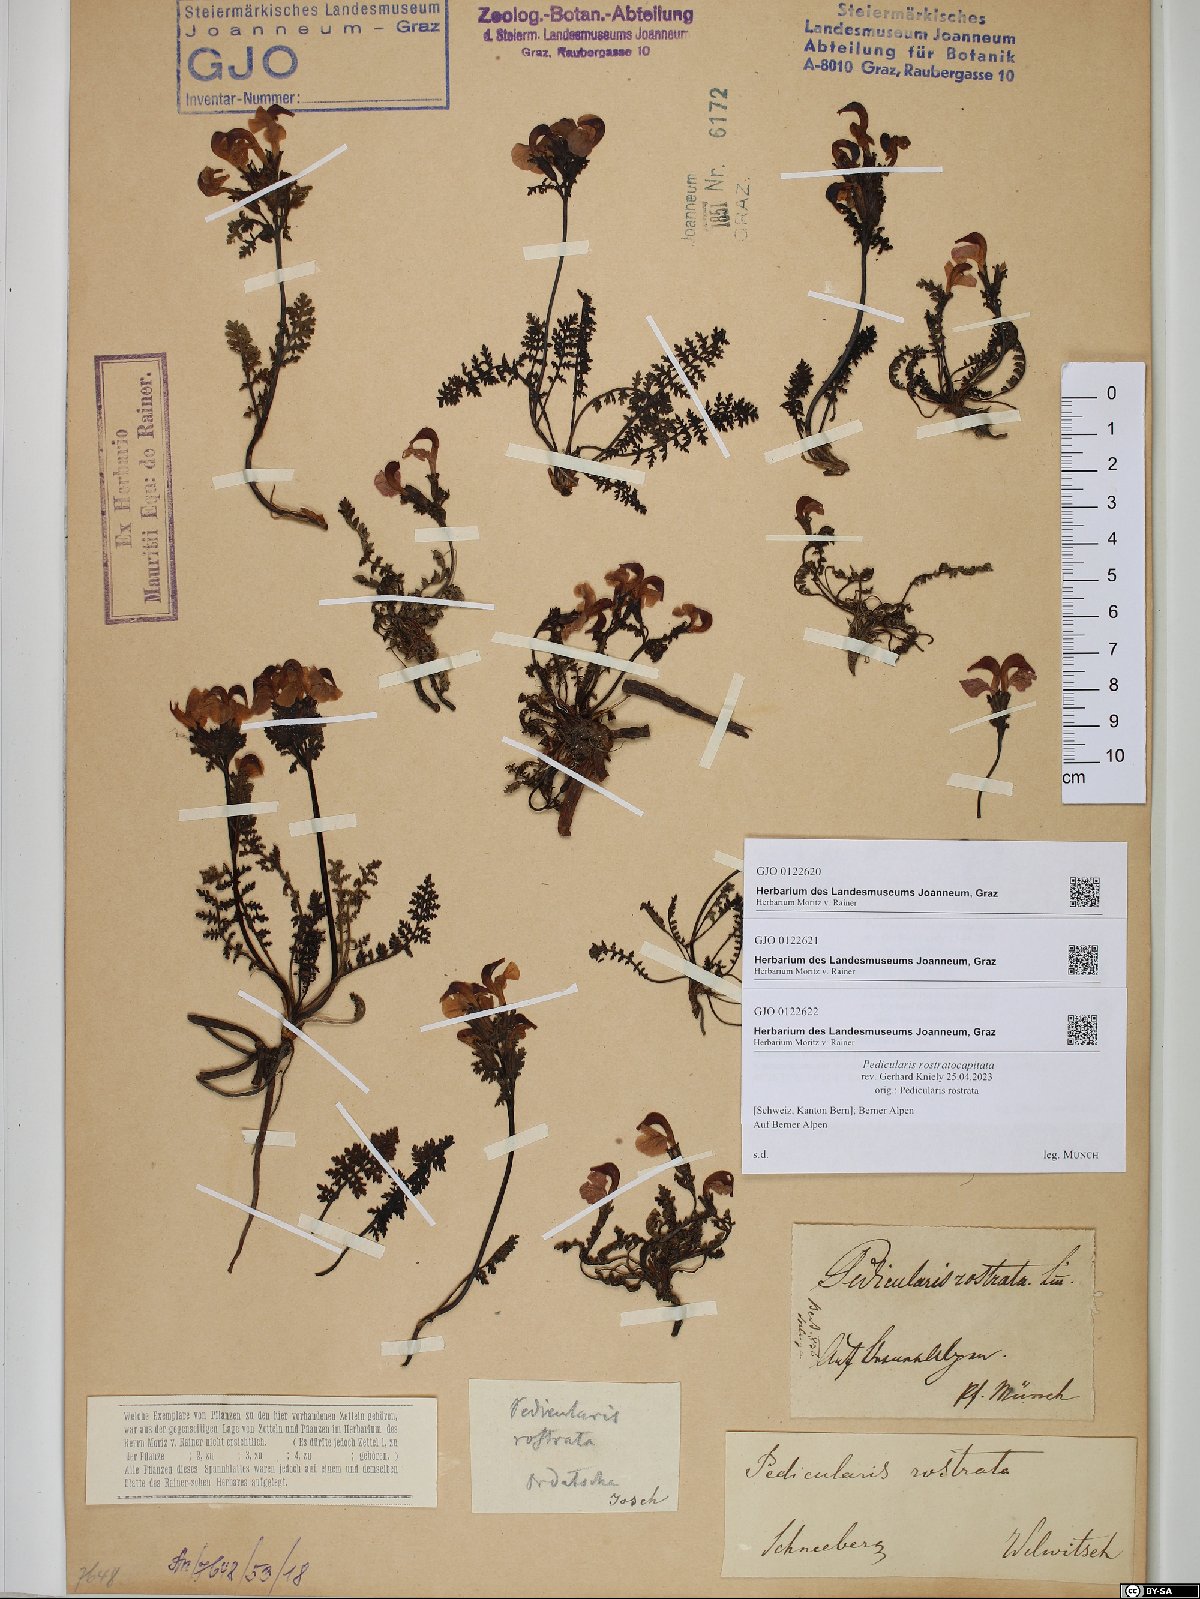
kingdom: Plantae
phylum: Tracheophyta
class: Magnoliopsida
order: Lamiales
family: Orobanchaceae
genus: Pedicularis
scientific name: Pedicularis rostratocapitata
